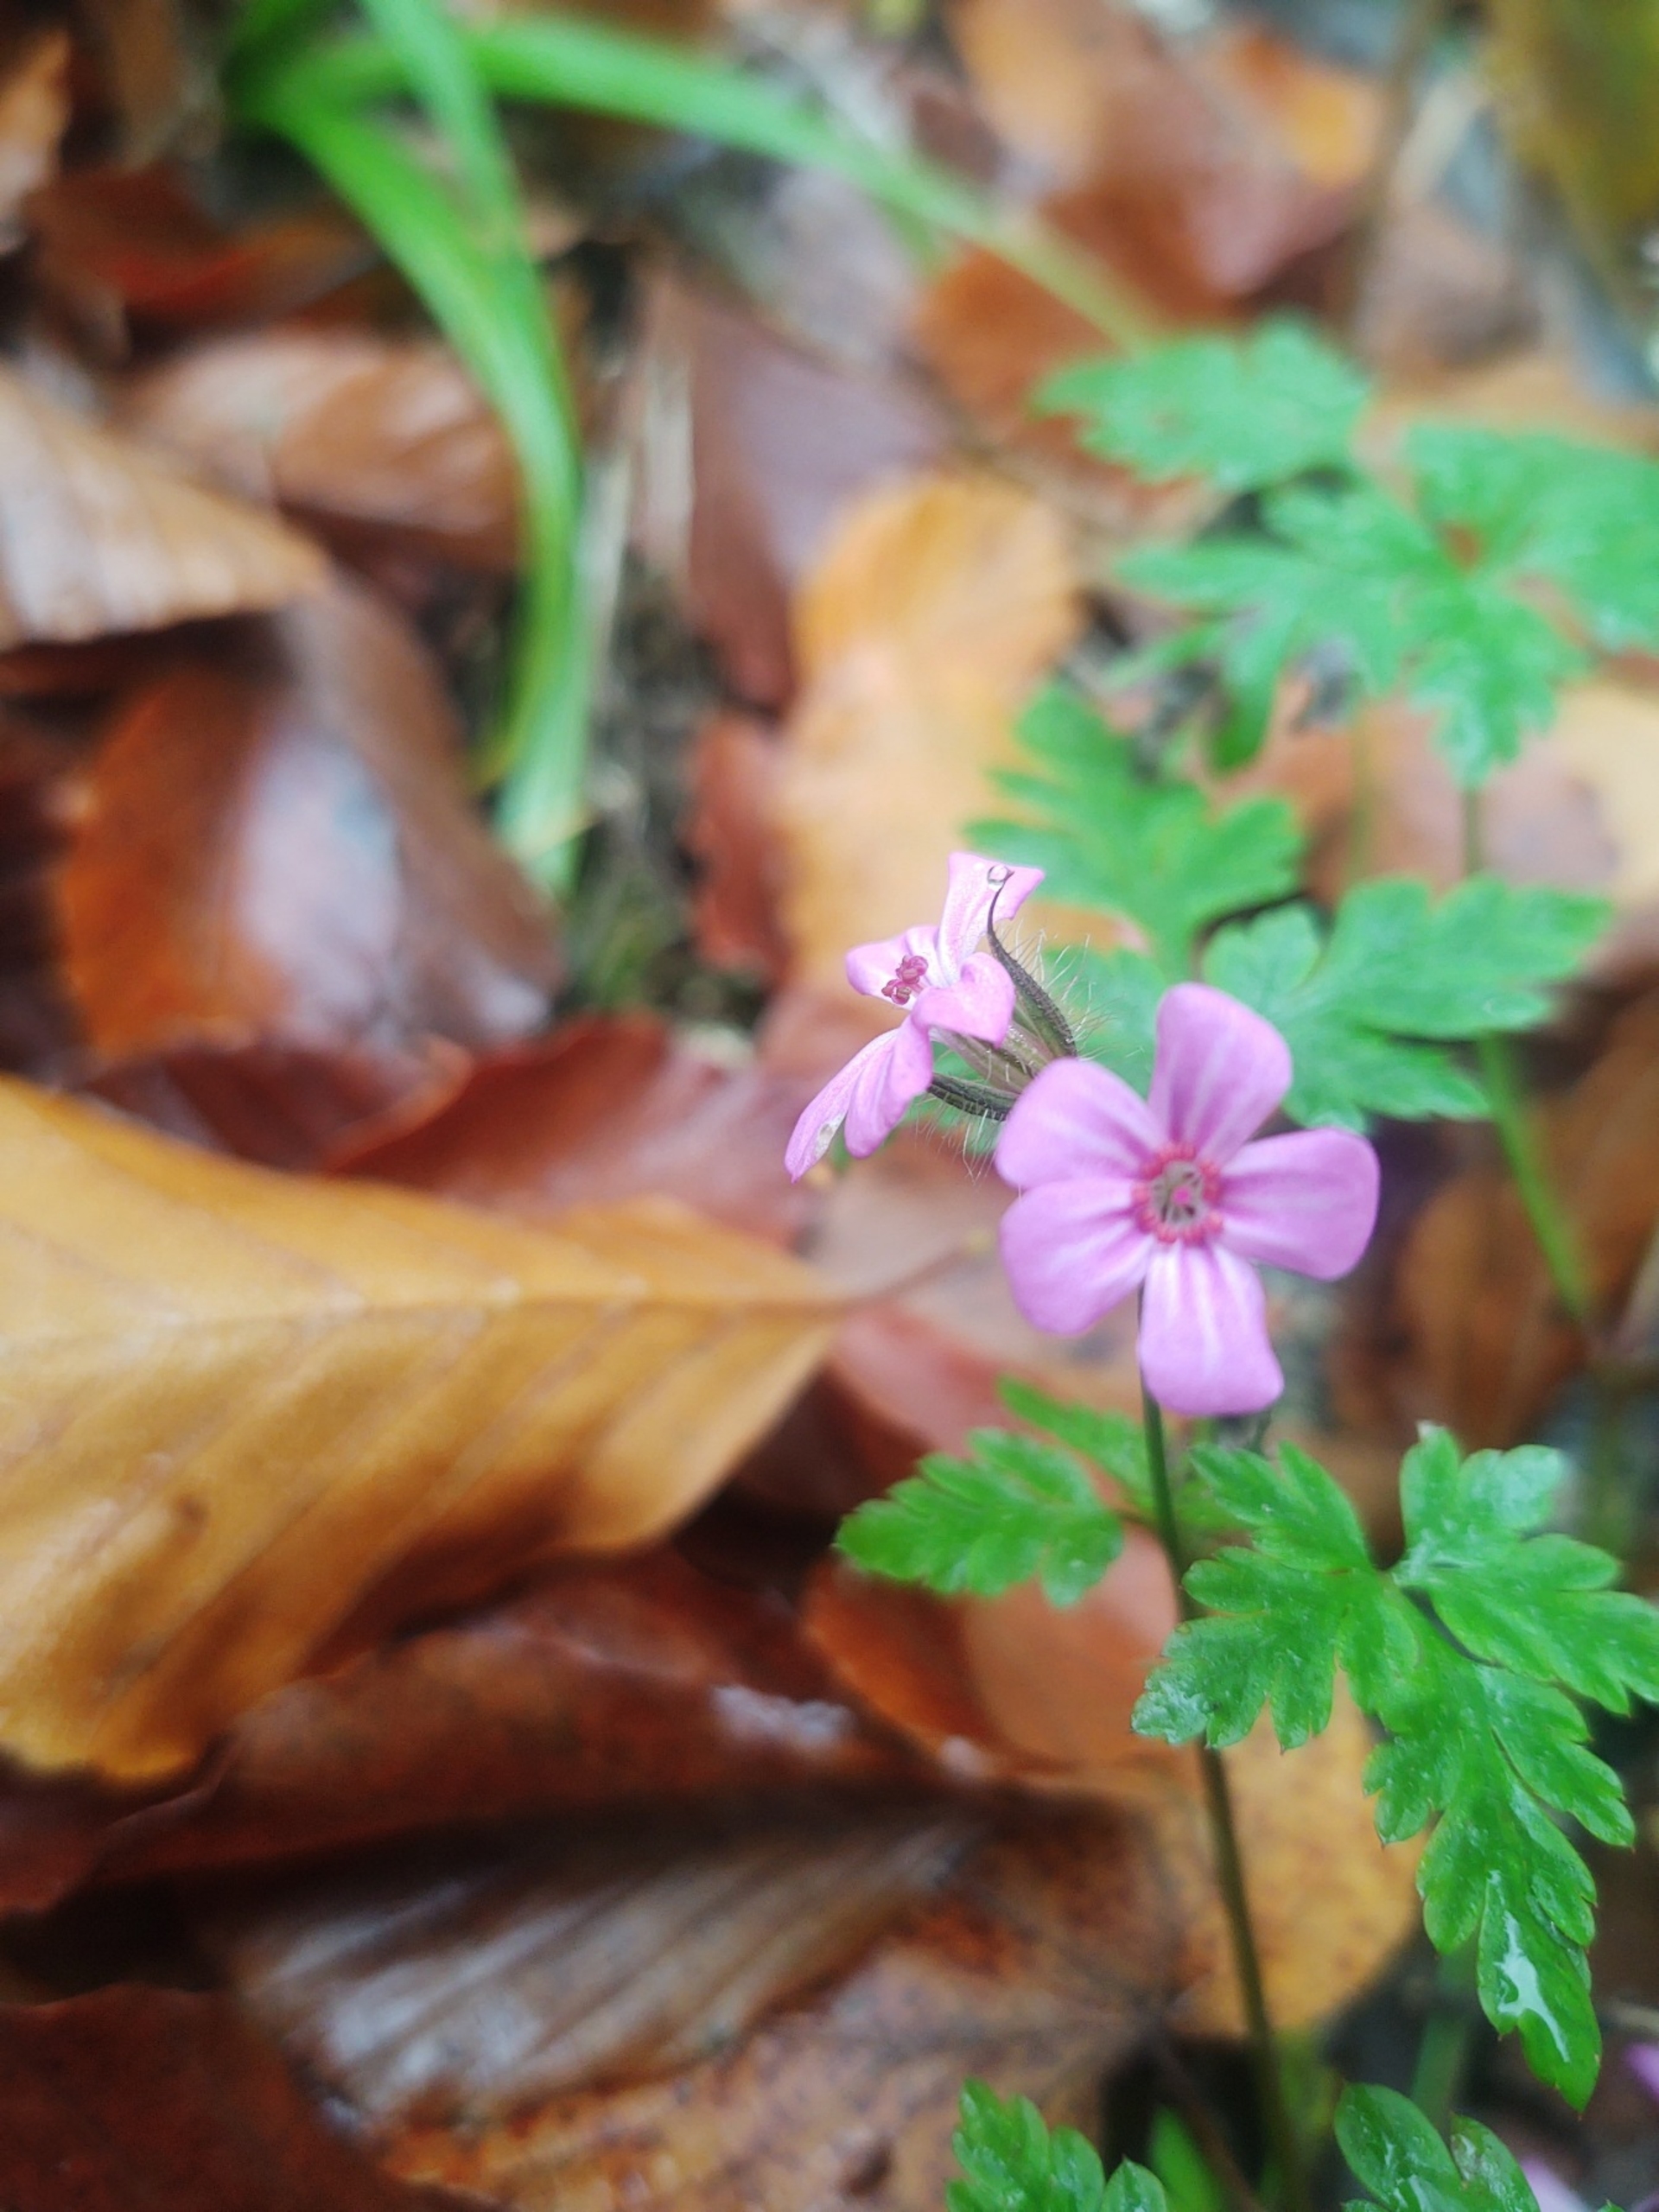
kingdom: Plantae
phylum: Tracheophyta
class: Magnoliopsida
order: Geraniales
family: Geraniaceae
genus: Geranium
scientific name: Geranium robertianum
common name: Stinkende storkenæb
